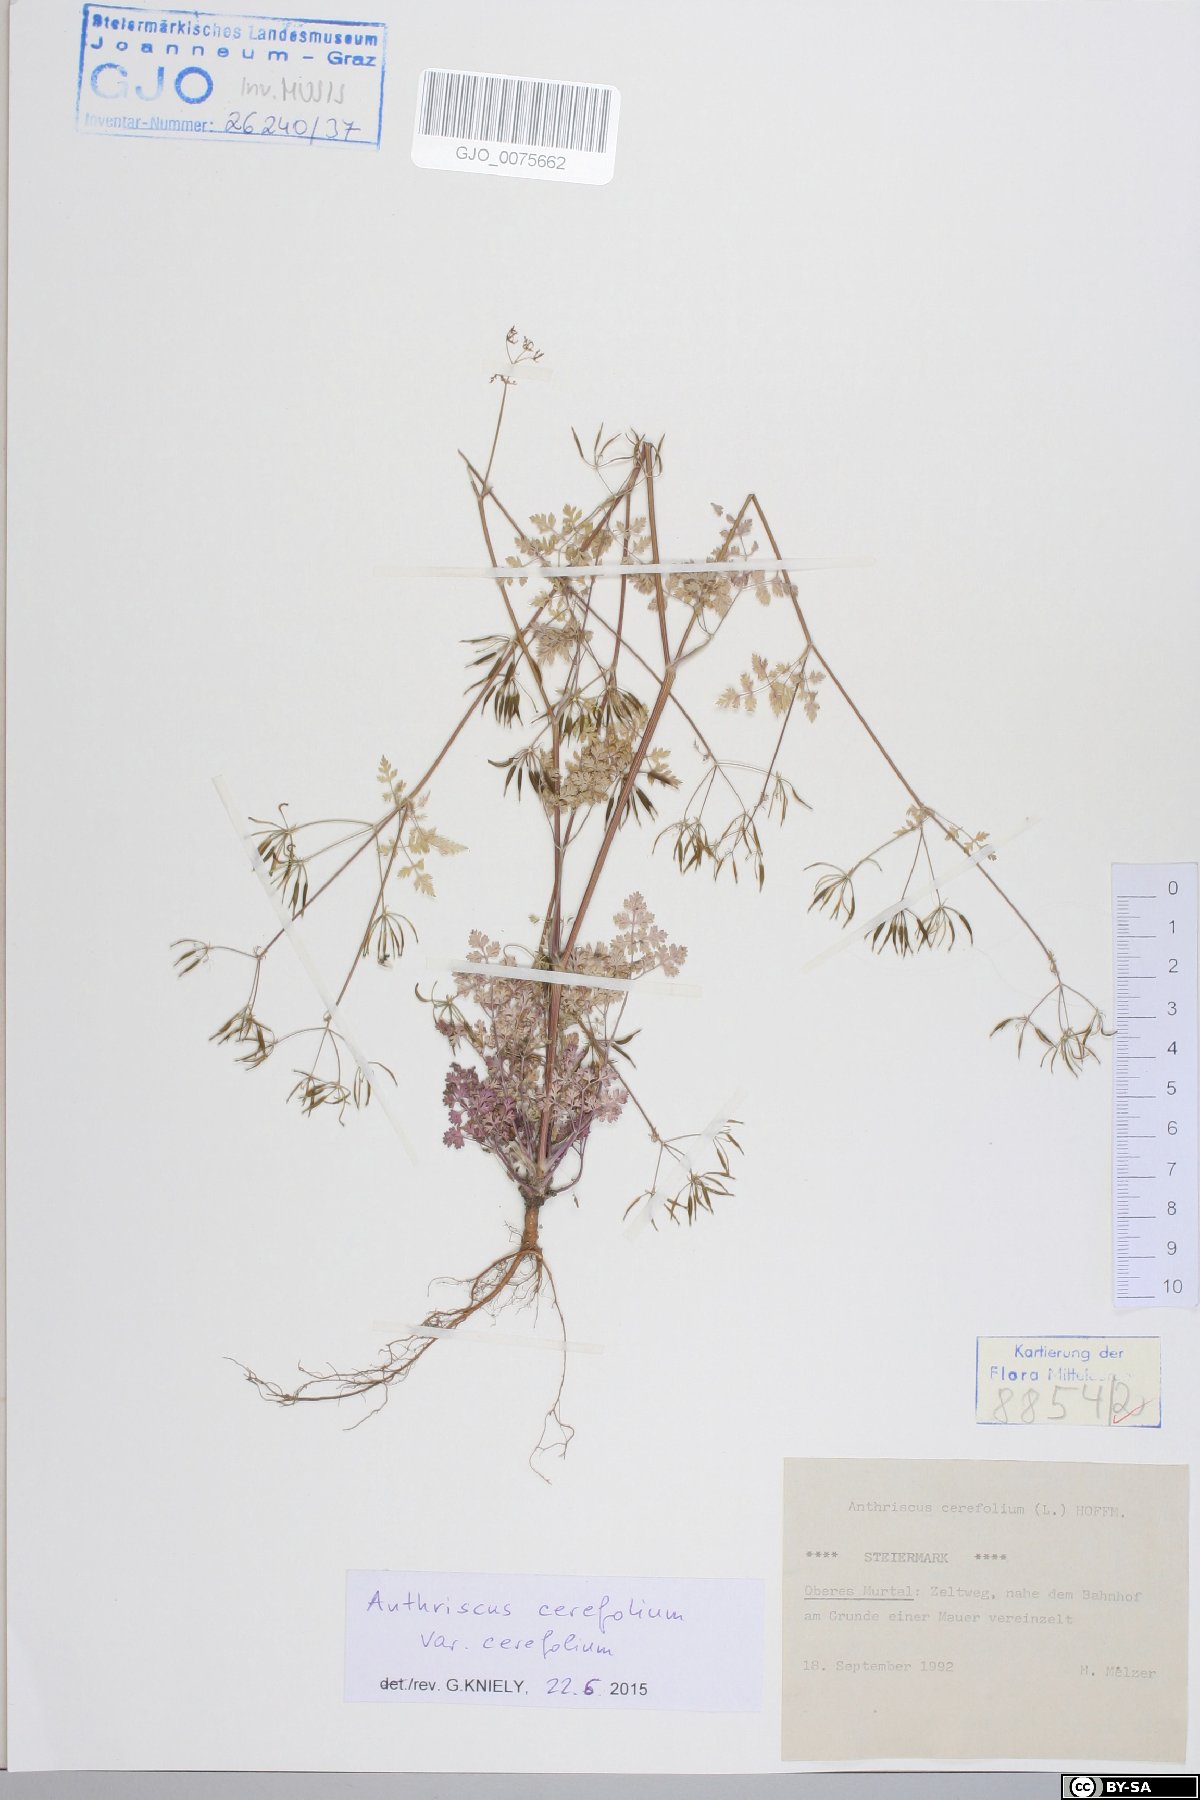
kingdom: Plantae
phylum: Tracheophyta
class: Magnoliopsida
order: Apiales
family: Apiaceae
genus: Anthriscus
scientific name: Anthriscus cerefolium
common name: Garden chervil
